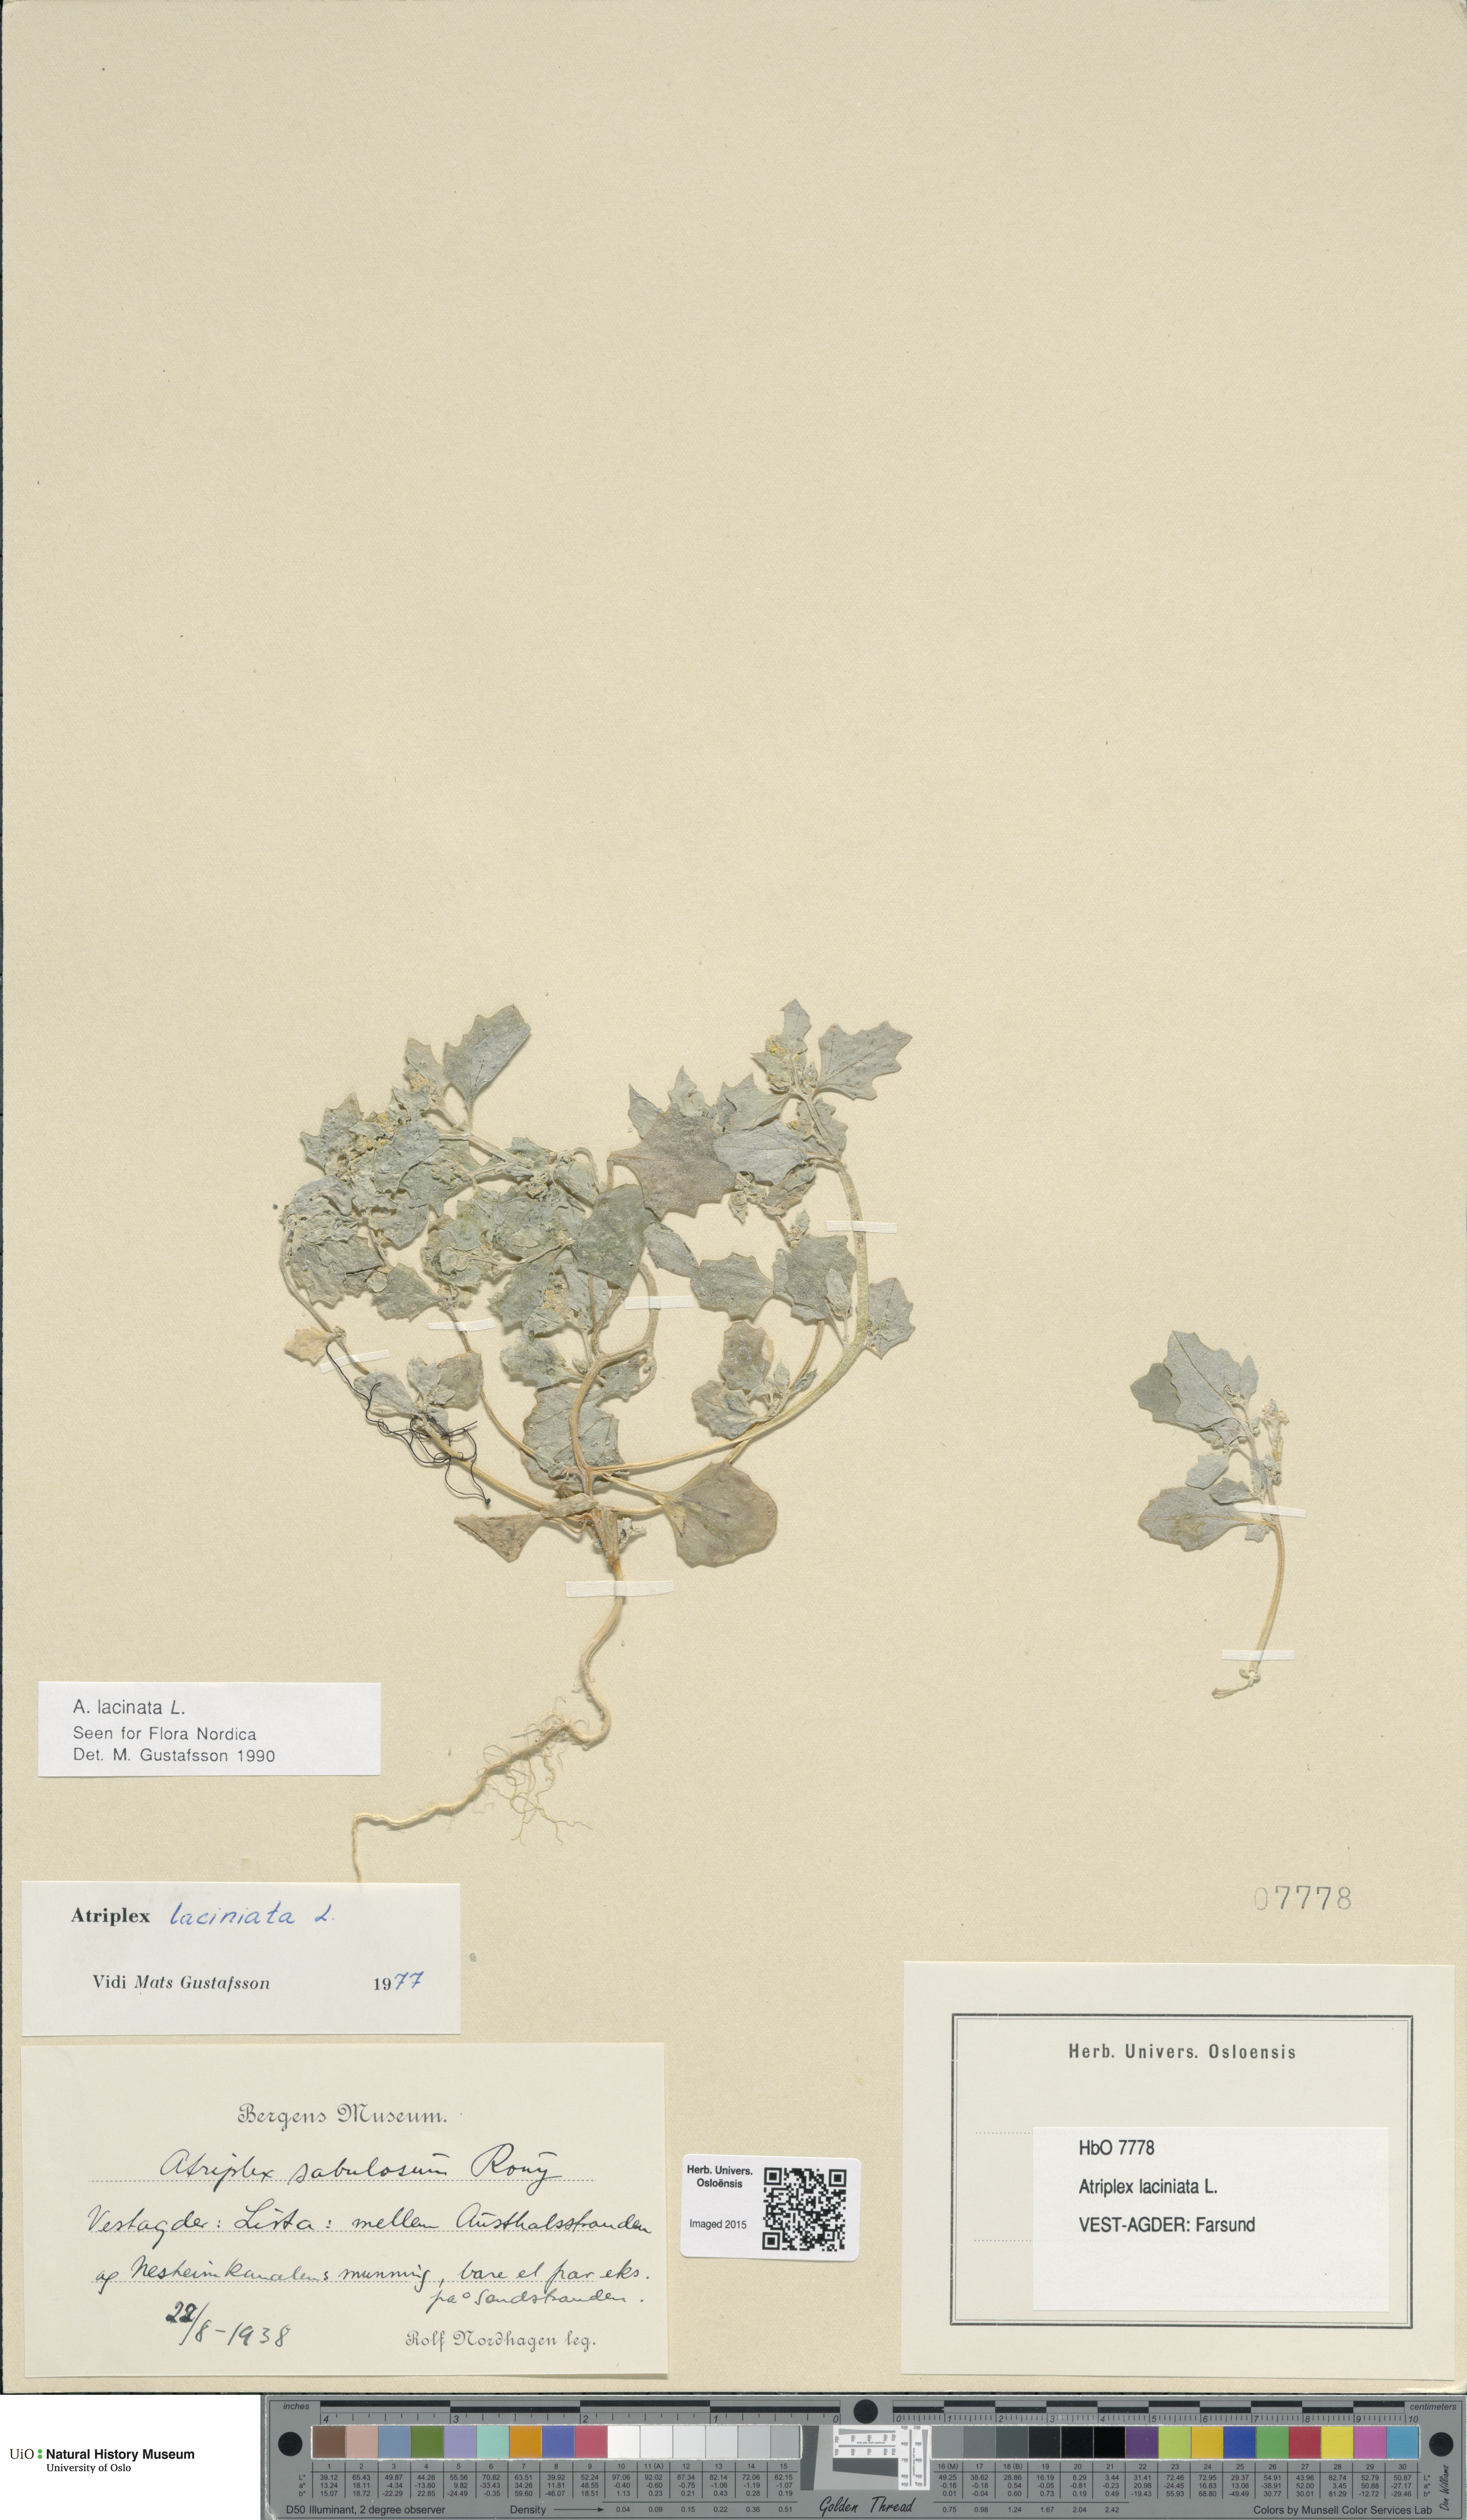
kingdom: Plantae
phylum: Tracheophyta
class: Magnoliopsida
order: Caryophyllales
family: Amaranthaceae
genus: Atriplex
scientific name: Atriplex laciniata
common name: Frosted orache
